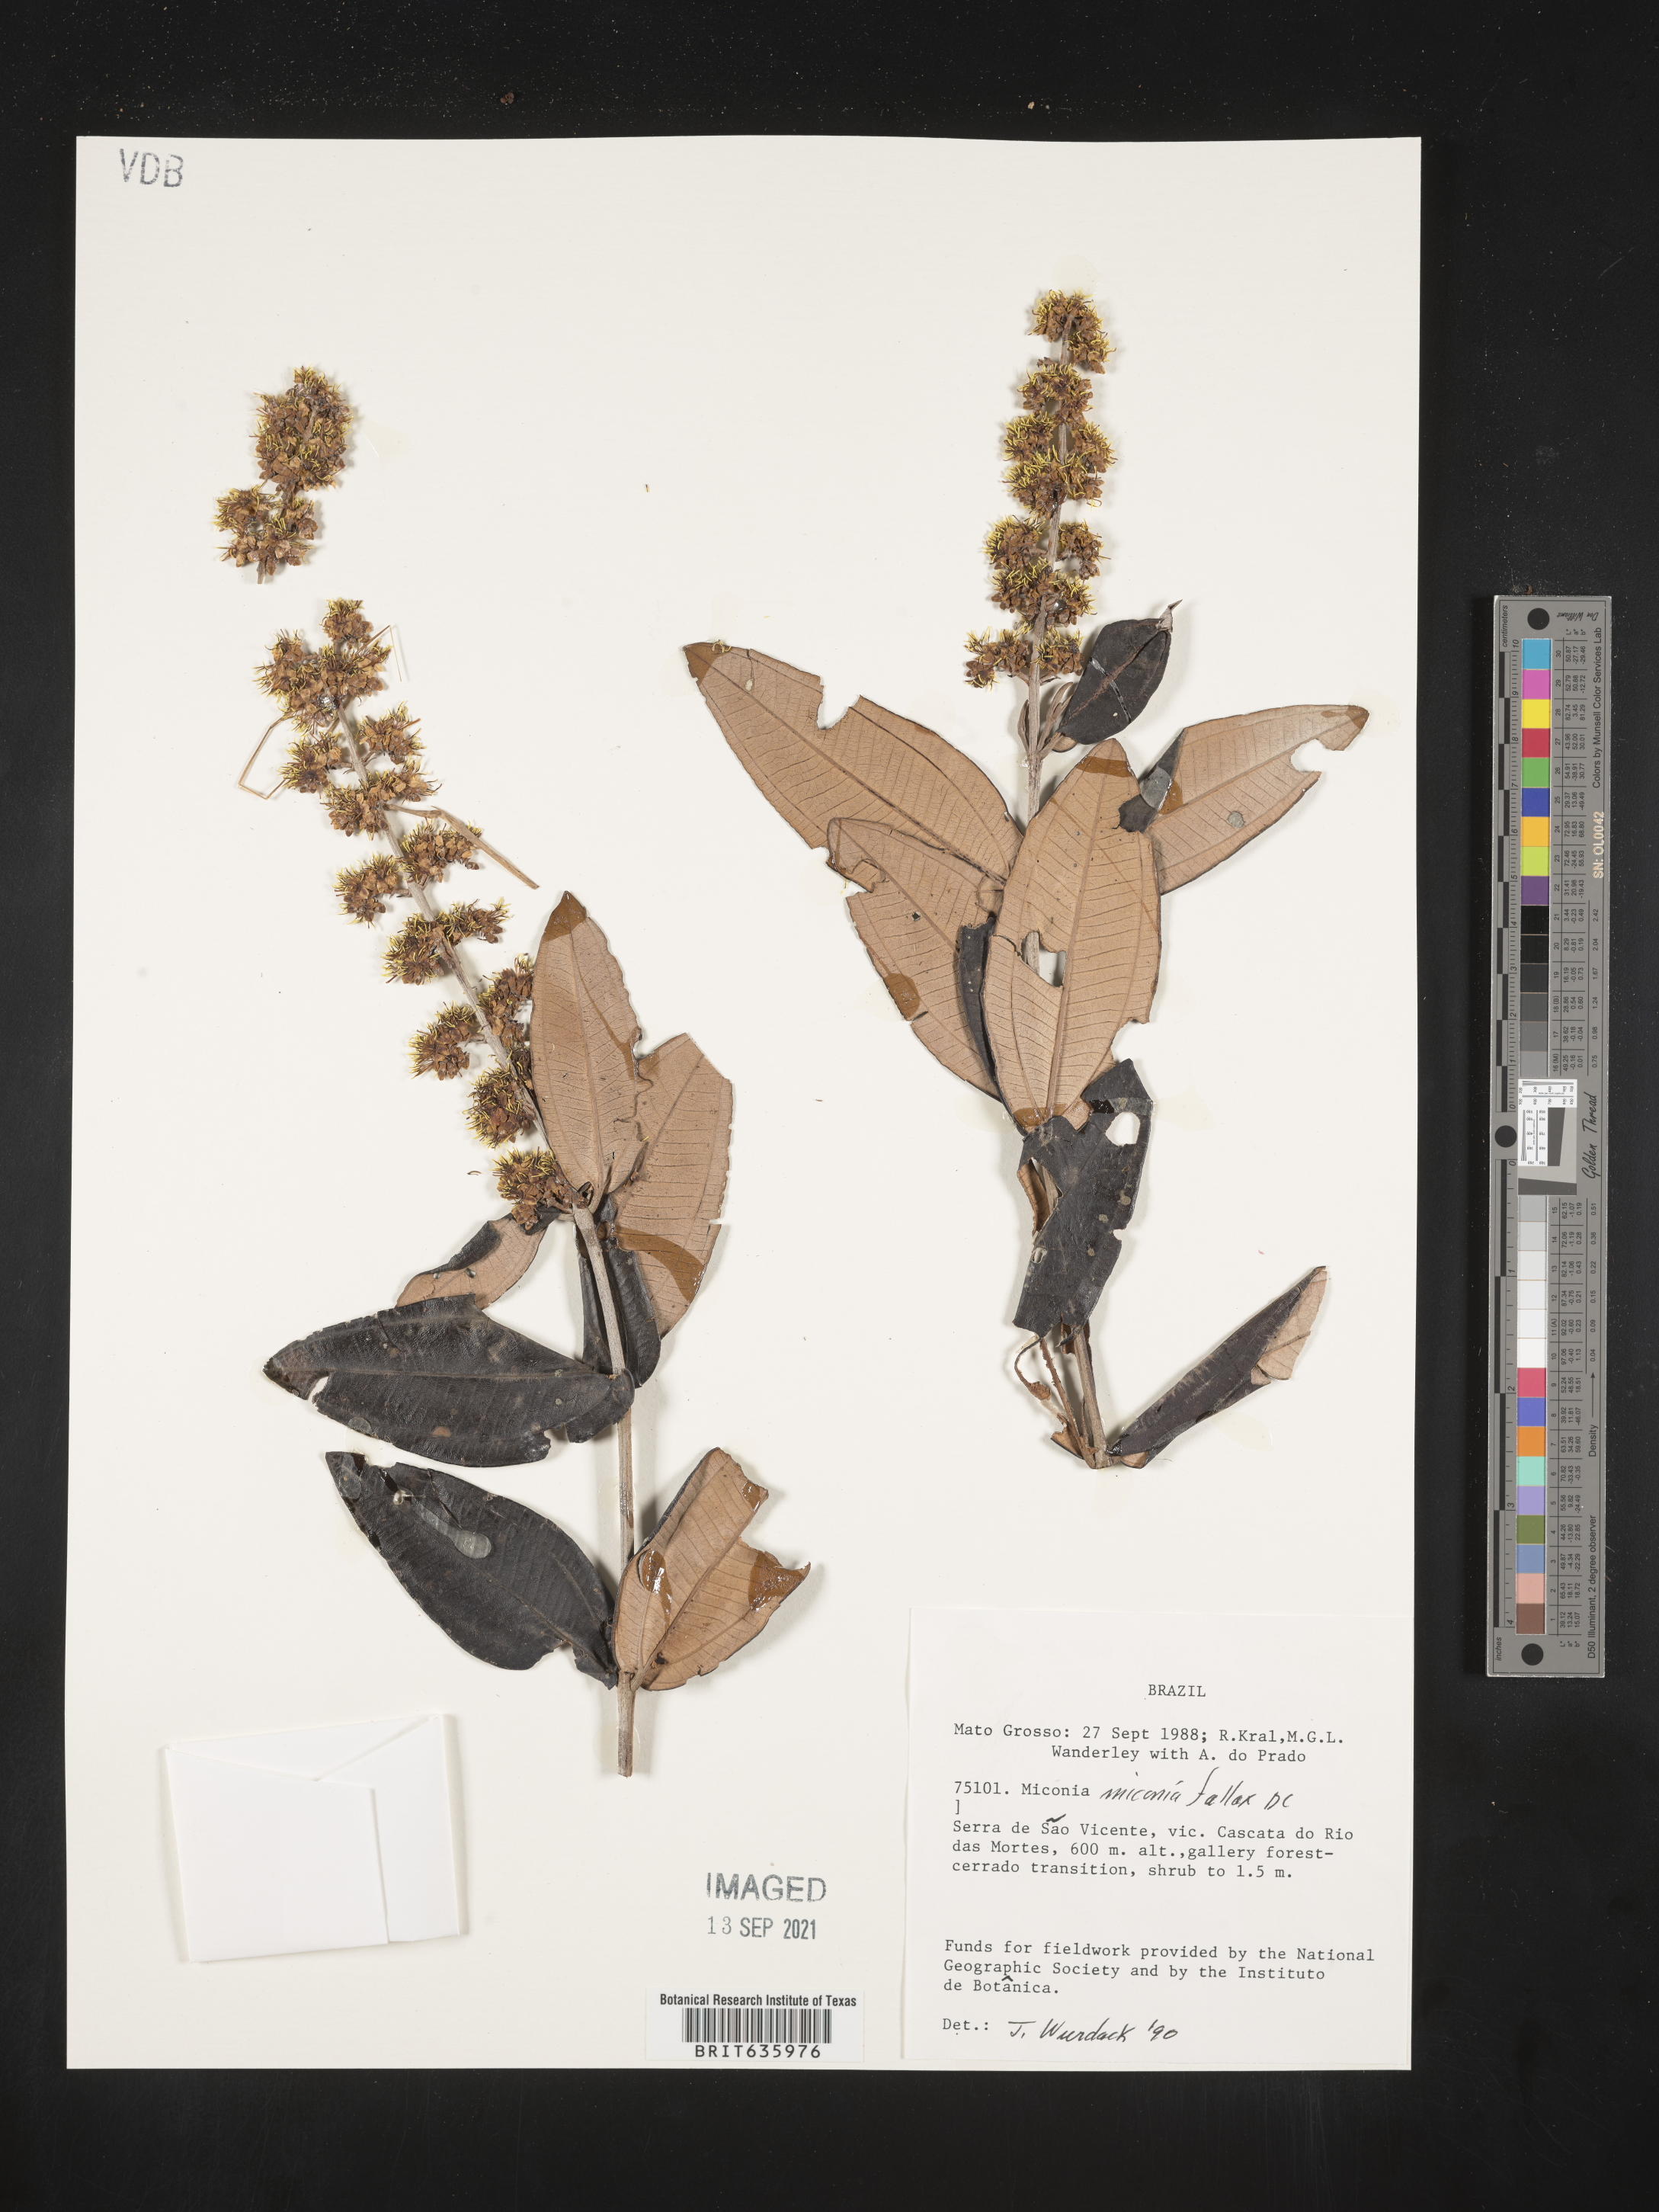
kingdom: Plantae
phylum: Tracheophyta
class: Magnoliopsida
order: Myrtales
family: Melastomataceae
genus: Miconia
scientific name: Miconia
